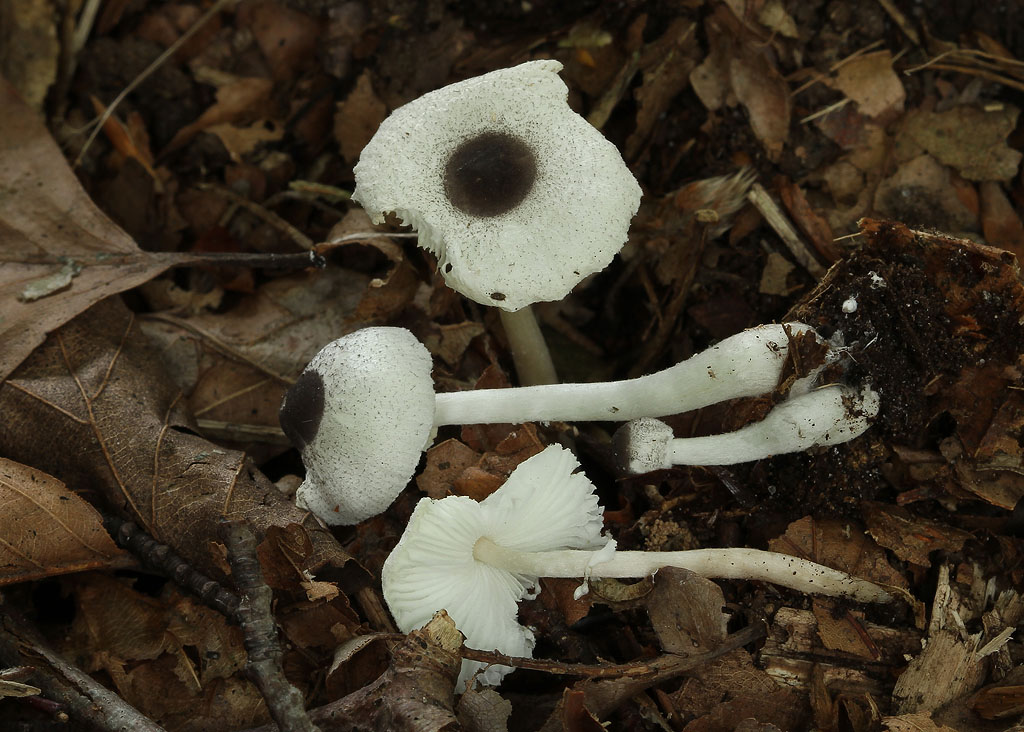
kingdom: Fungi
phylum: Basidiomycota
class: Agaricomycetes
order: Agaricales
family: Agaricaceae
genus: Leucocoprinus
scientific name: Leucocoprinus brebissonii
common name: gråsort silkehat
